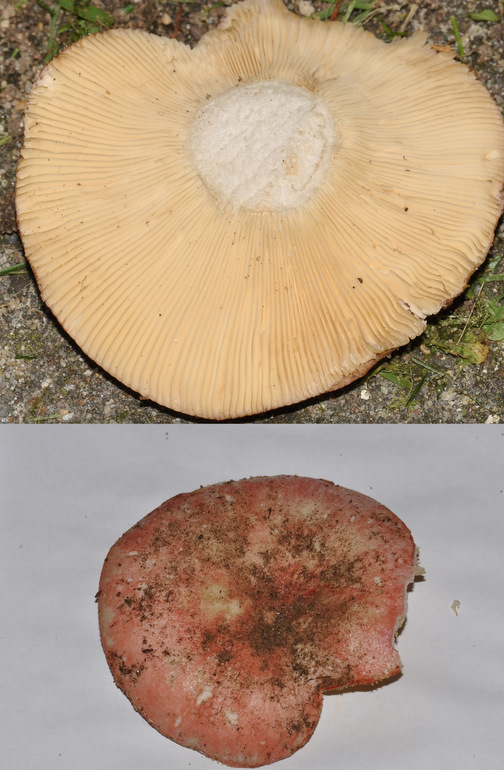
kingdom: Fungi
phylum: Basidiomycota
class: Agaricomycetes
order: Russulales
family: Russulaceae
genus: Russula
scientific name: Russula depallens
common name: falmende skørhat
